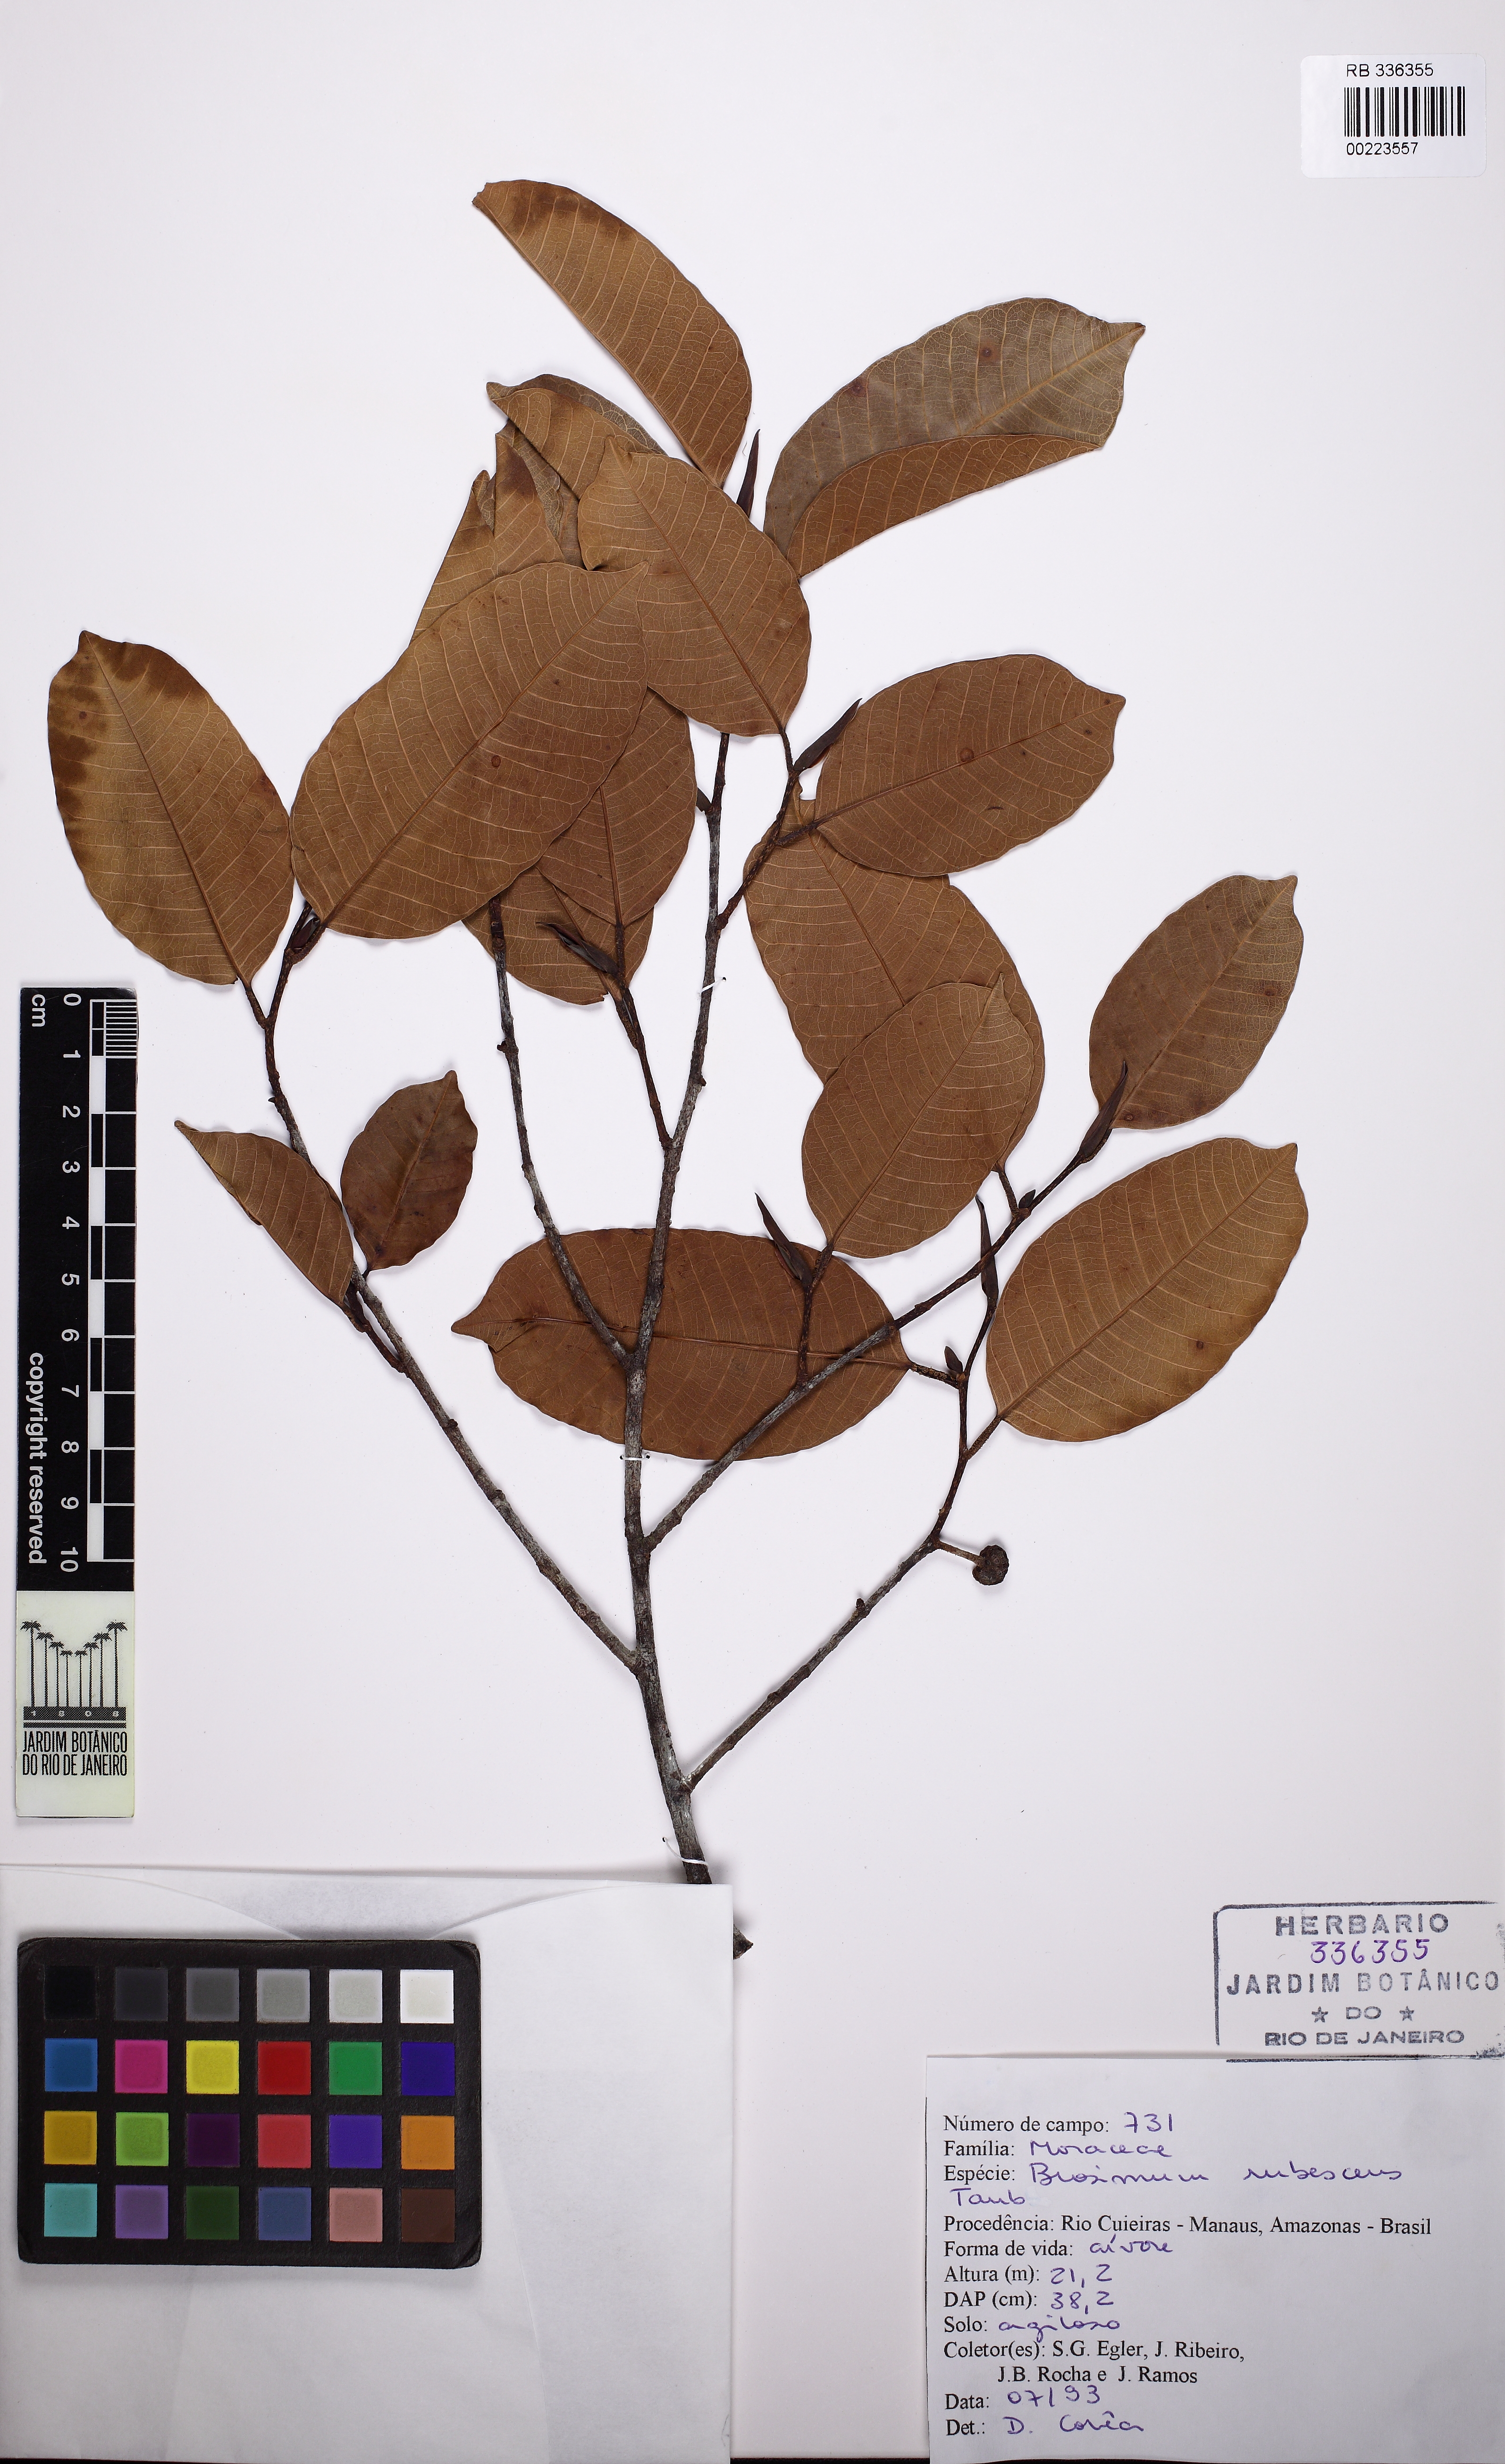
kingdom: Plantae
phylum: Tracheophyta
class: Magnoliopsida
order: Rosales
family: Moraceae
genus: Brosimum
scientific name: Brosimum rubescens
